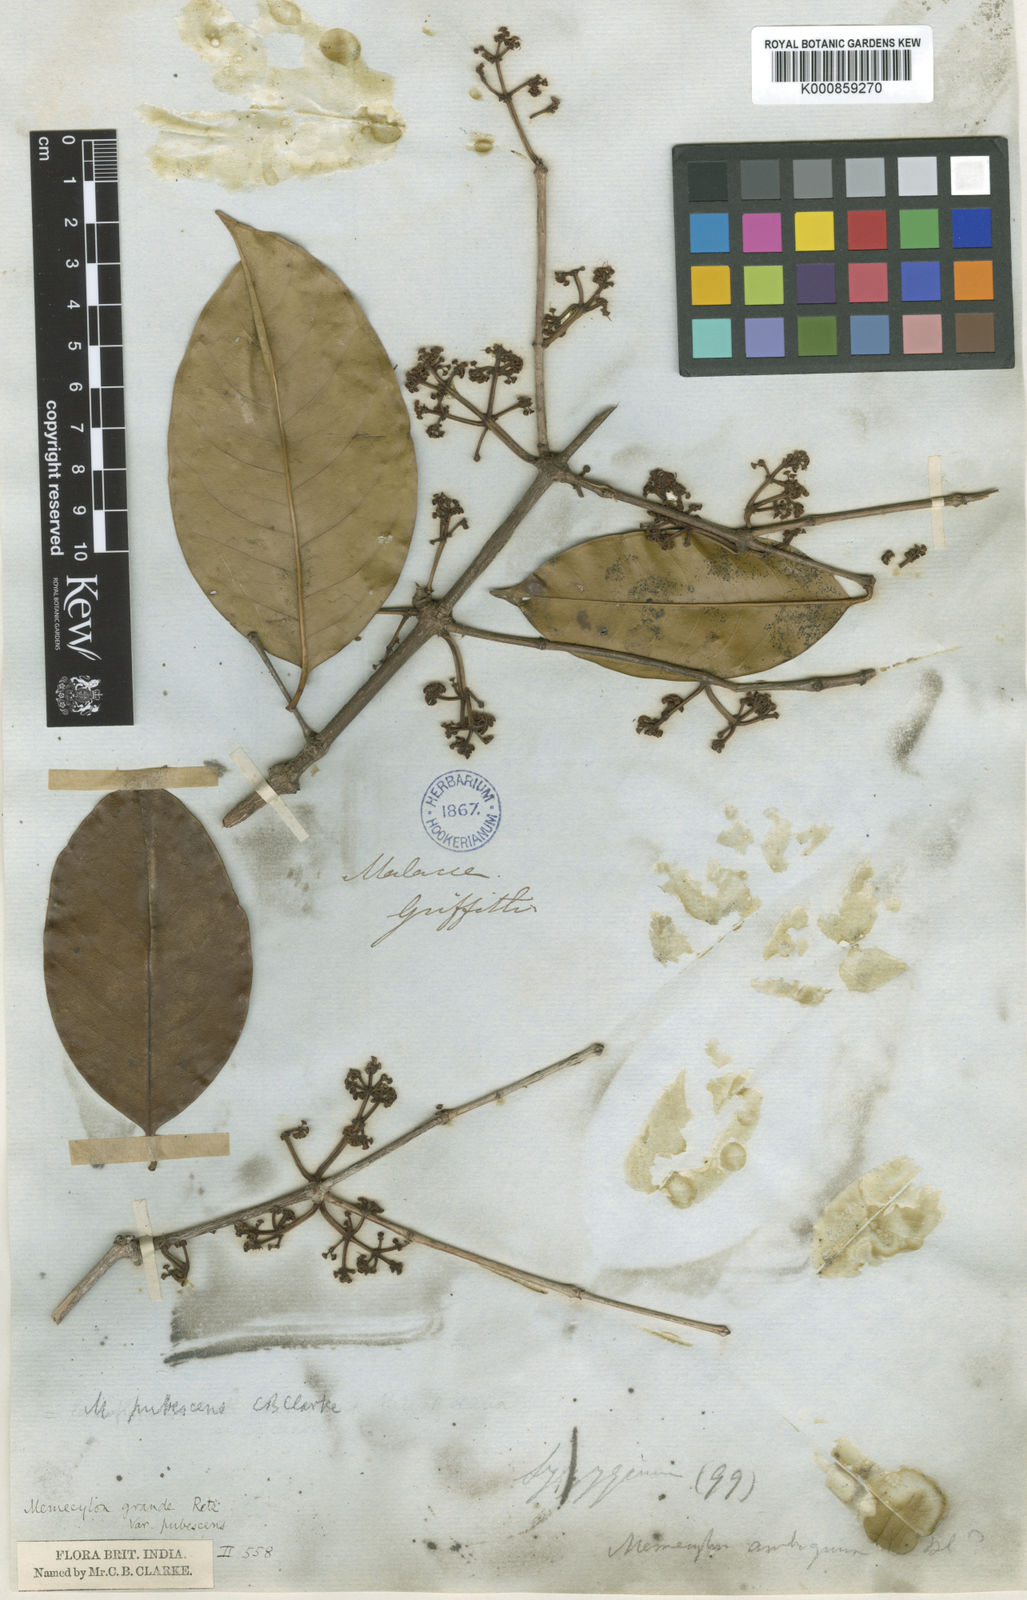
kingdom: Plantae
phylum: Tracheophyta
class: Magnoliopsida
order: Myrtales
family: Melastomataceae
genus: Memecylon
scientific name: Memecylon
